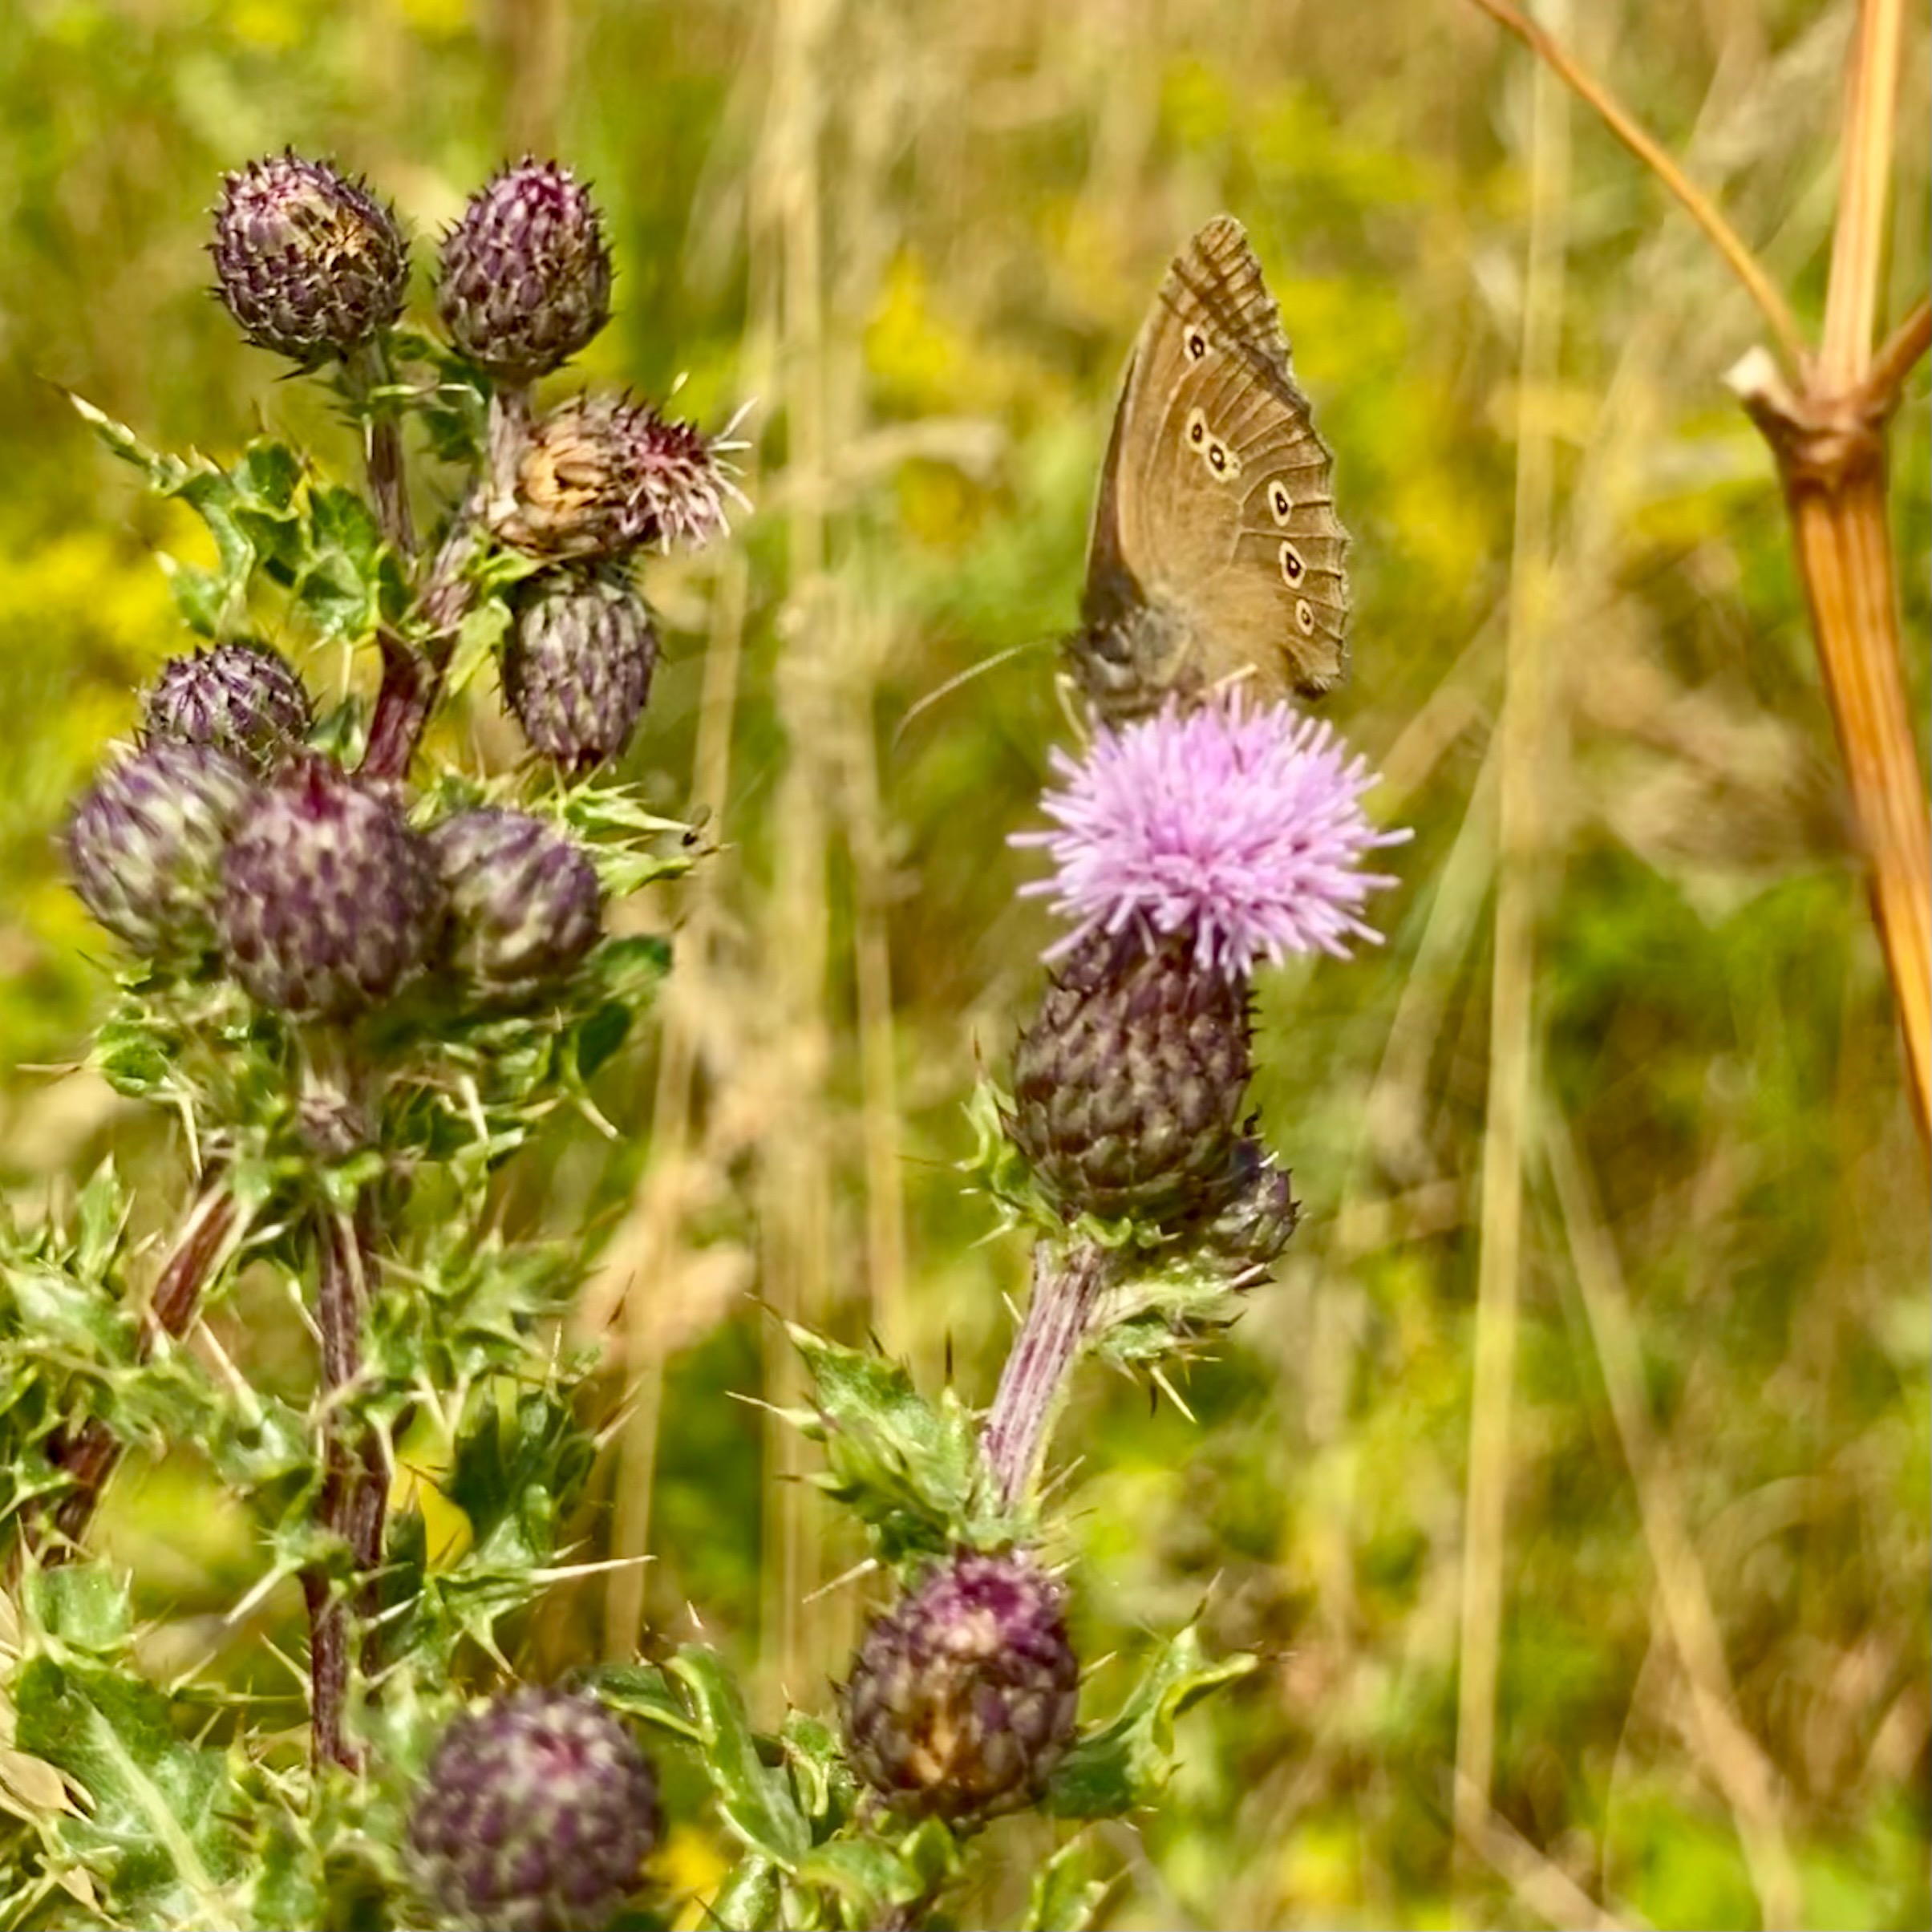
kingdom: Animalia
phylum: Arthropoda
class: Insecta
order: Lepidoptera
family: Nymphalidae
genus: Aphantopus
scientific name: Aphantopus hyperantus
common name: Engrandøje
